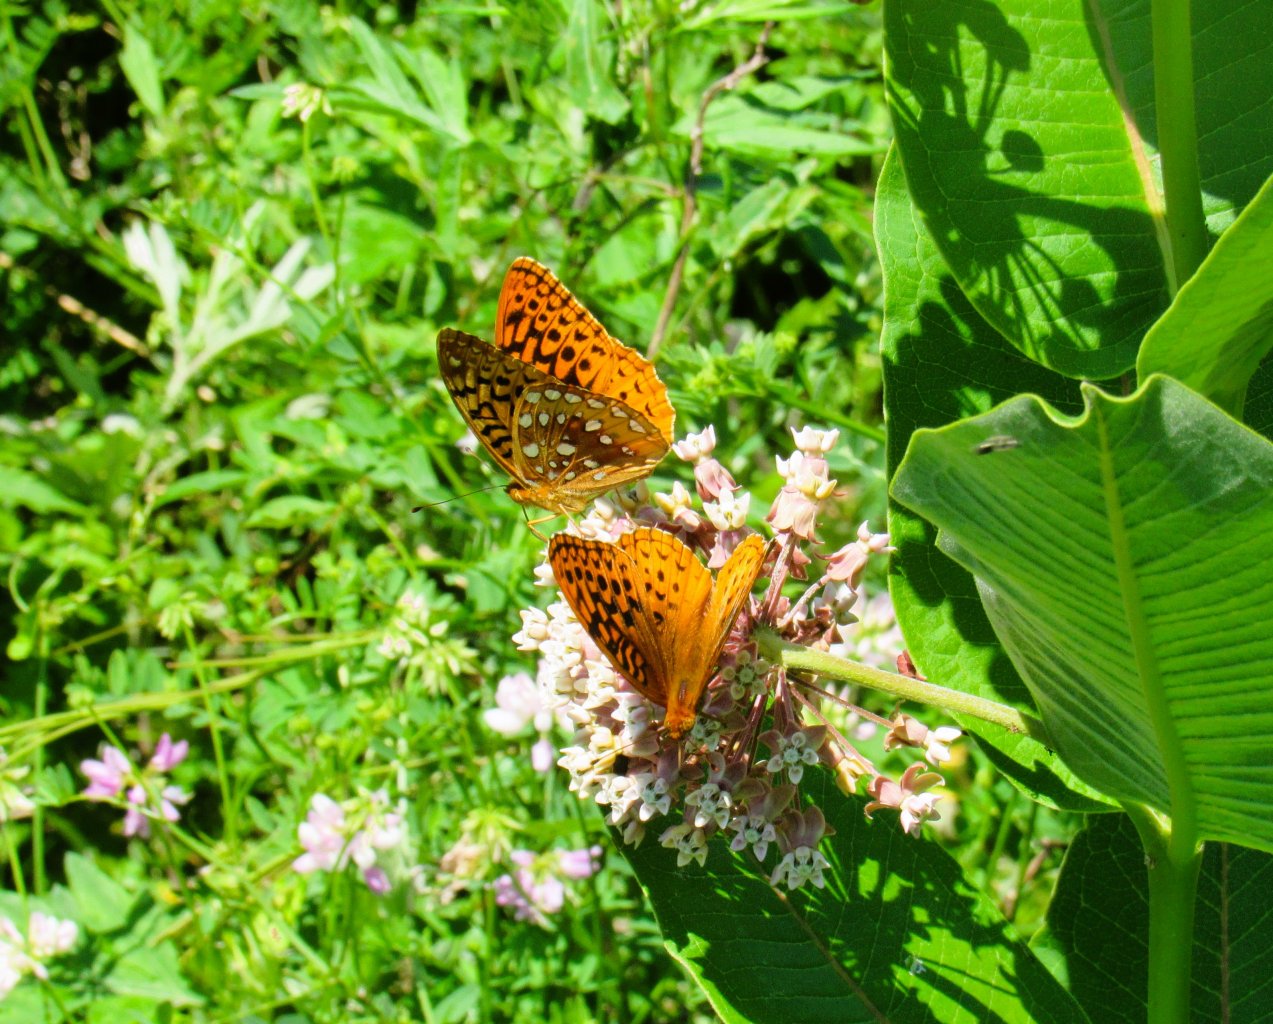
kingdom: Animalia
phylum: Arthropoda
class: Insecta
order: Lepidoptera
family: Nymphalidae
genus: Speyeria
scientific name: Speyeria cybele
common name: Great Spangled Fritillary
